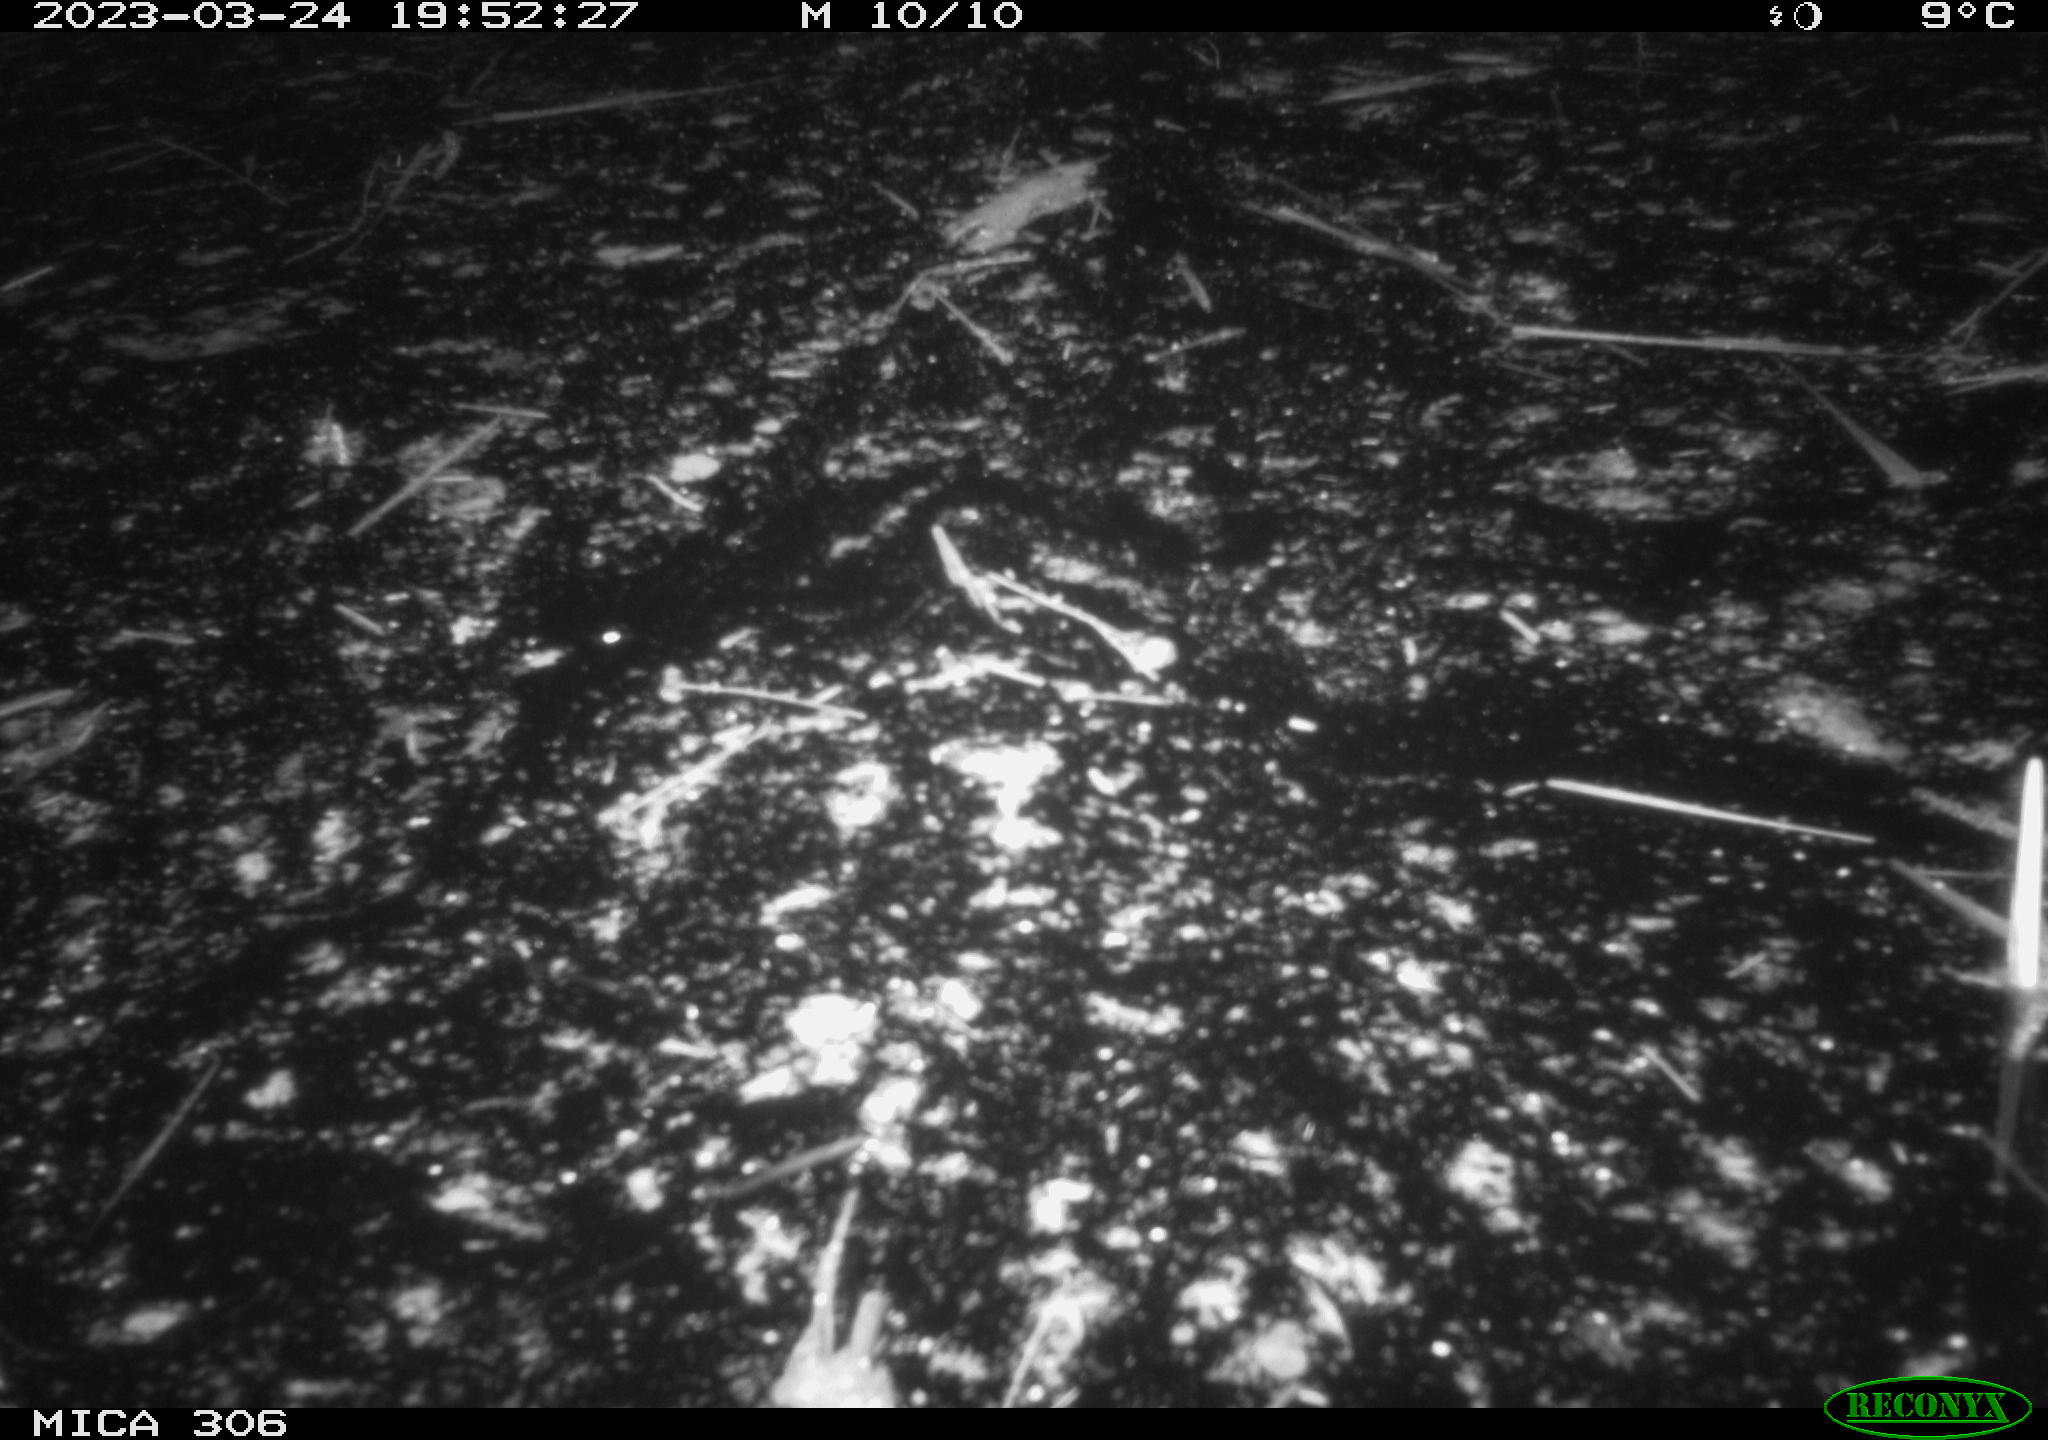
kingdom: Animalia
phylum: Chordata
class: Aves
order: Anseriformes
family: Anatidae
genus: Anas
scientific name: Anas
